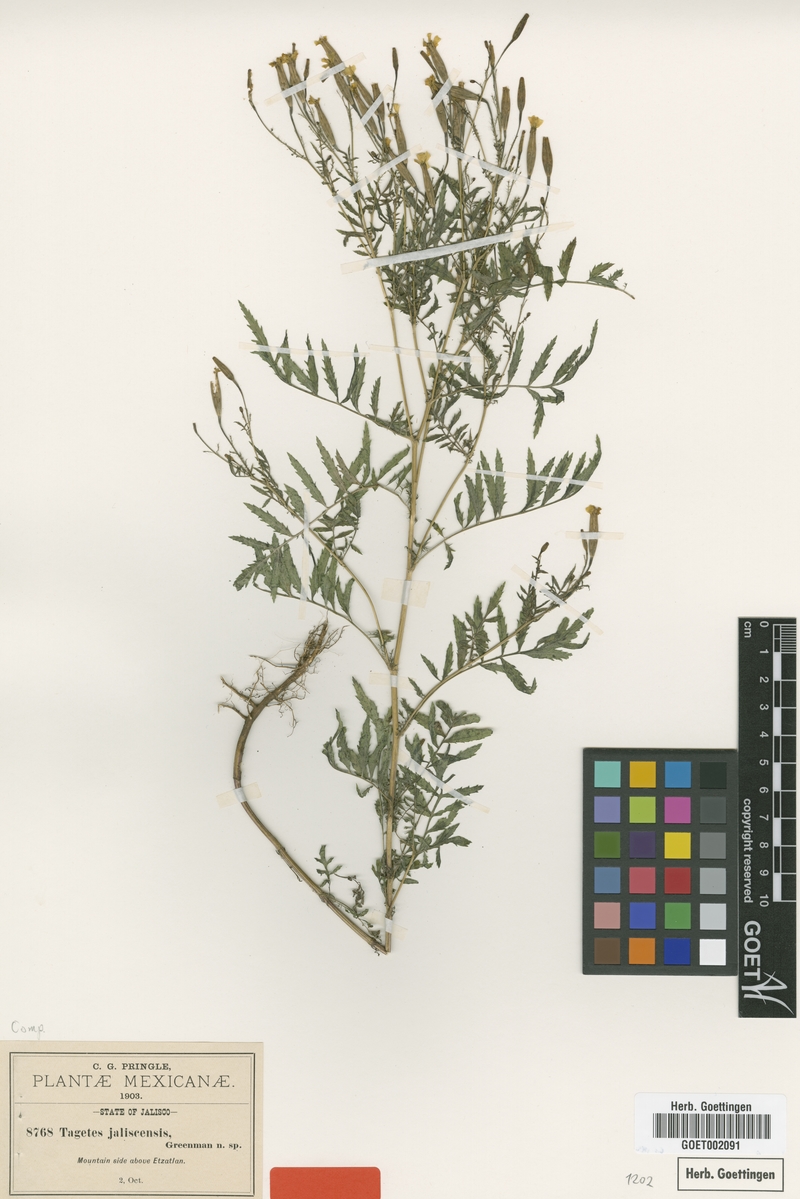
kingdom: Plantae
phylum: Tracheophyta
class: Magnoliopsida
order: Asterales
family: Asteraceae
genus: Tagetes
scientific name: Tagetes triradiata
